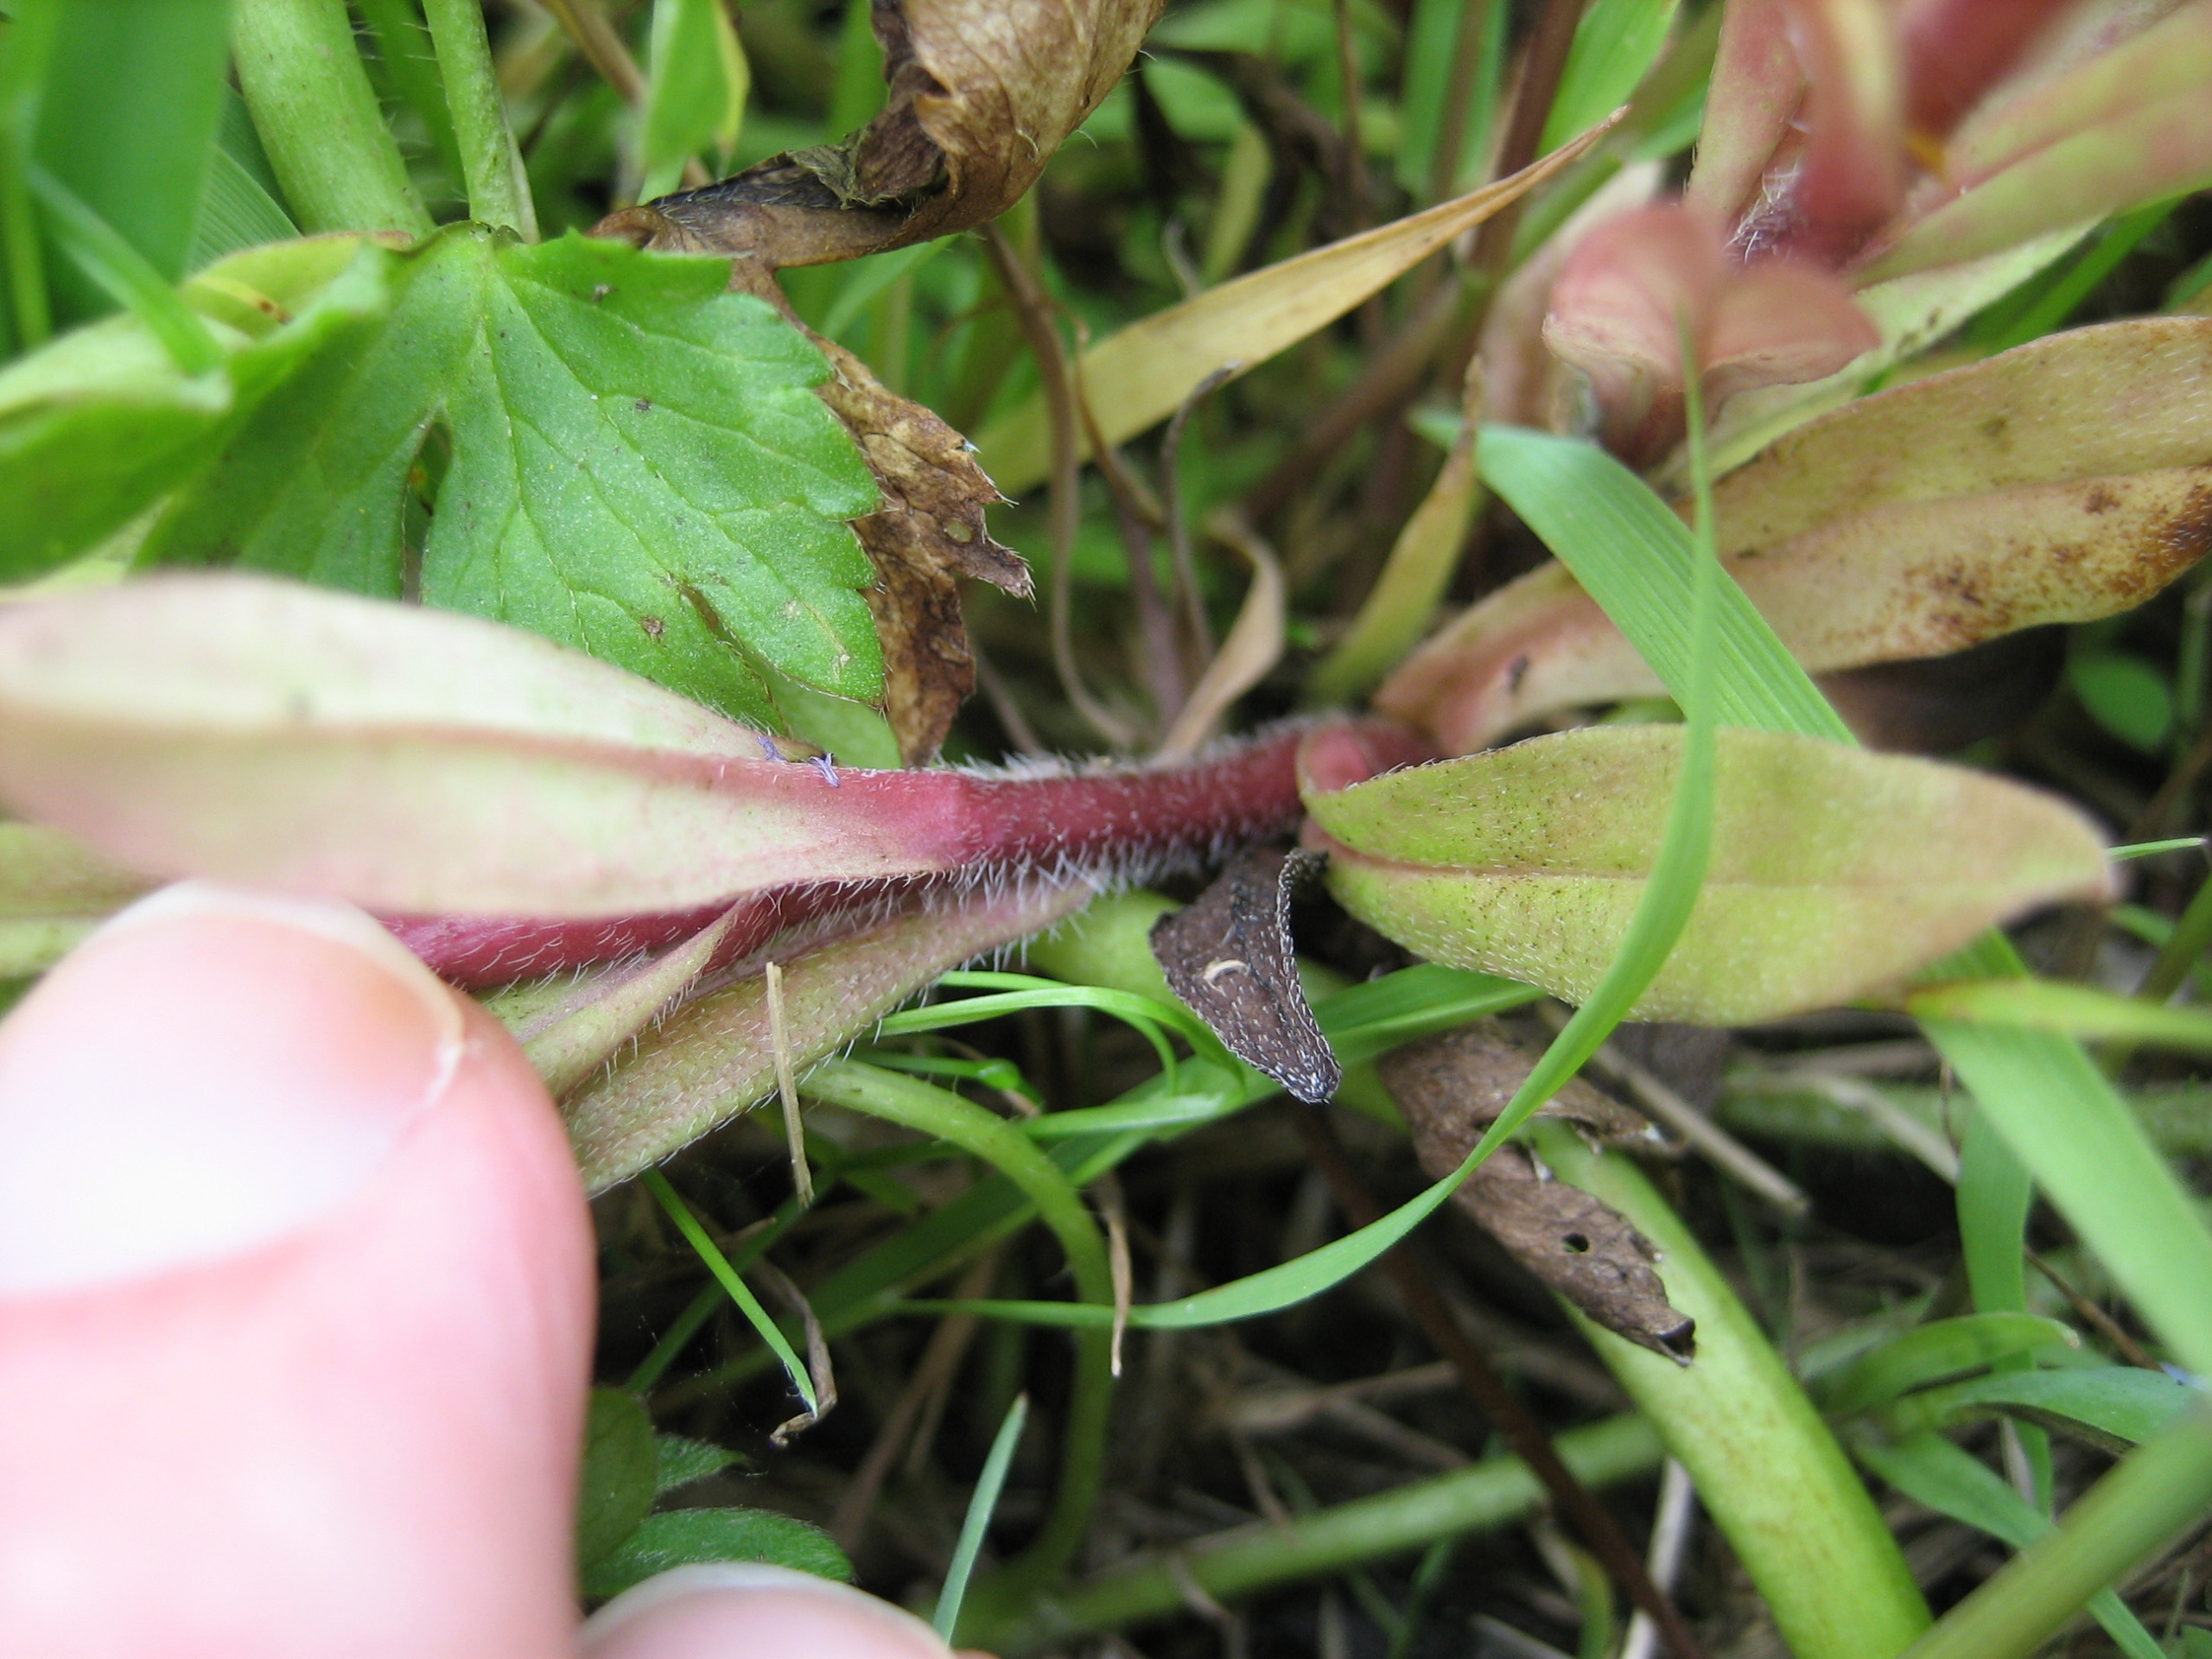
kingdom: Plantae
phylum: Tracheophyta
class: Magnoliopsida
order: Boraginales
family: Boraginaceae
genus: Myosotis
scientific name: Myosotis scorpioides
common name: Eng-forglemmigej
